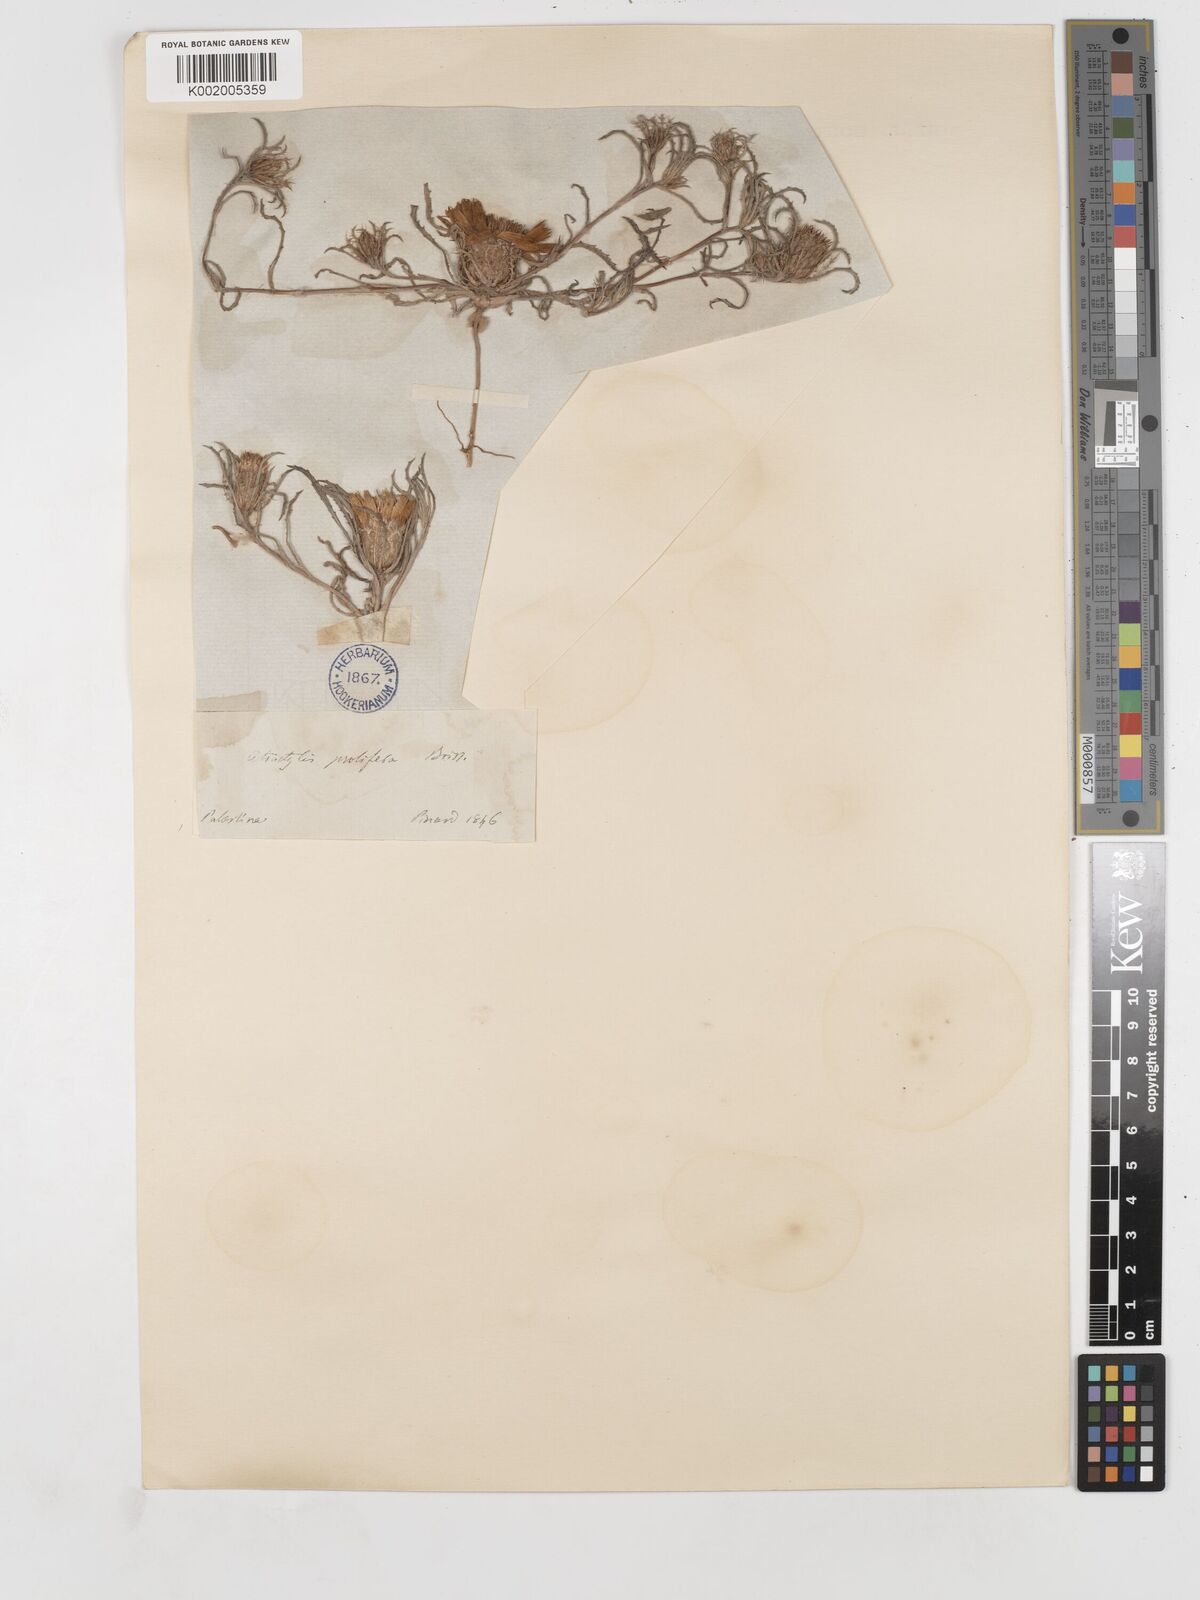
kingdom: Plantae
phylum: Tracheophyta
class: Magnoliopsida
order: Asterales
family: Asteraceae
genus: Atractylis
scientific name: Atractylis prolifera
